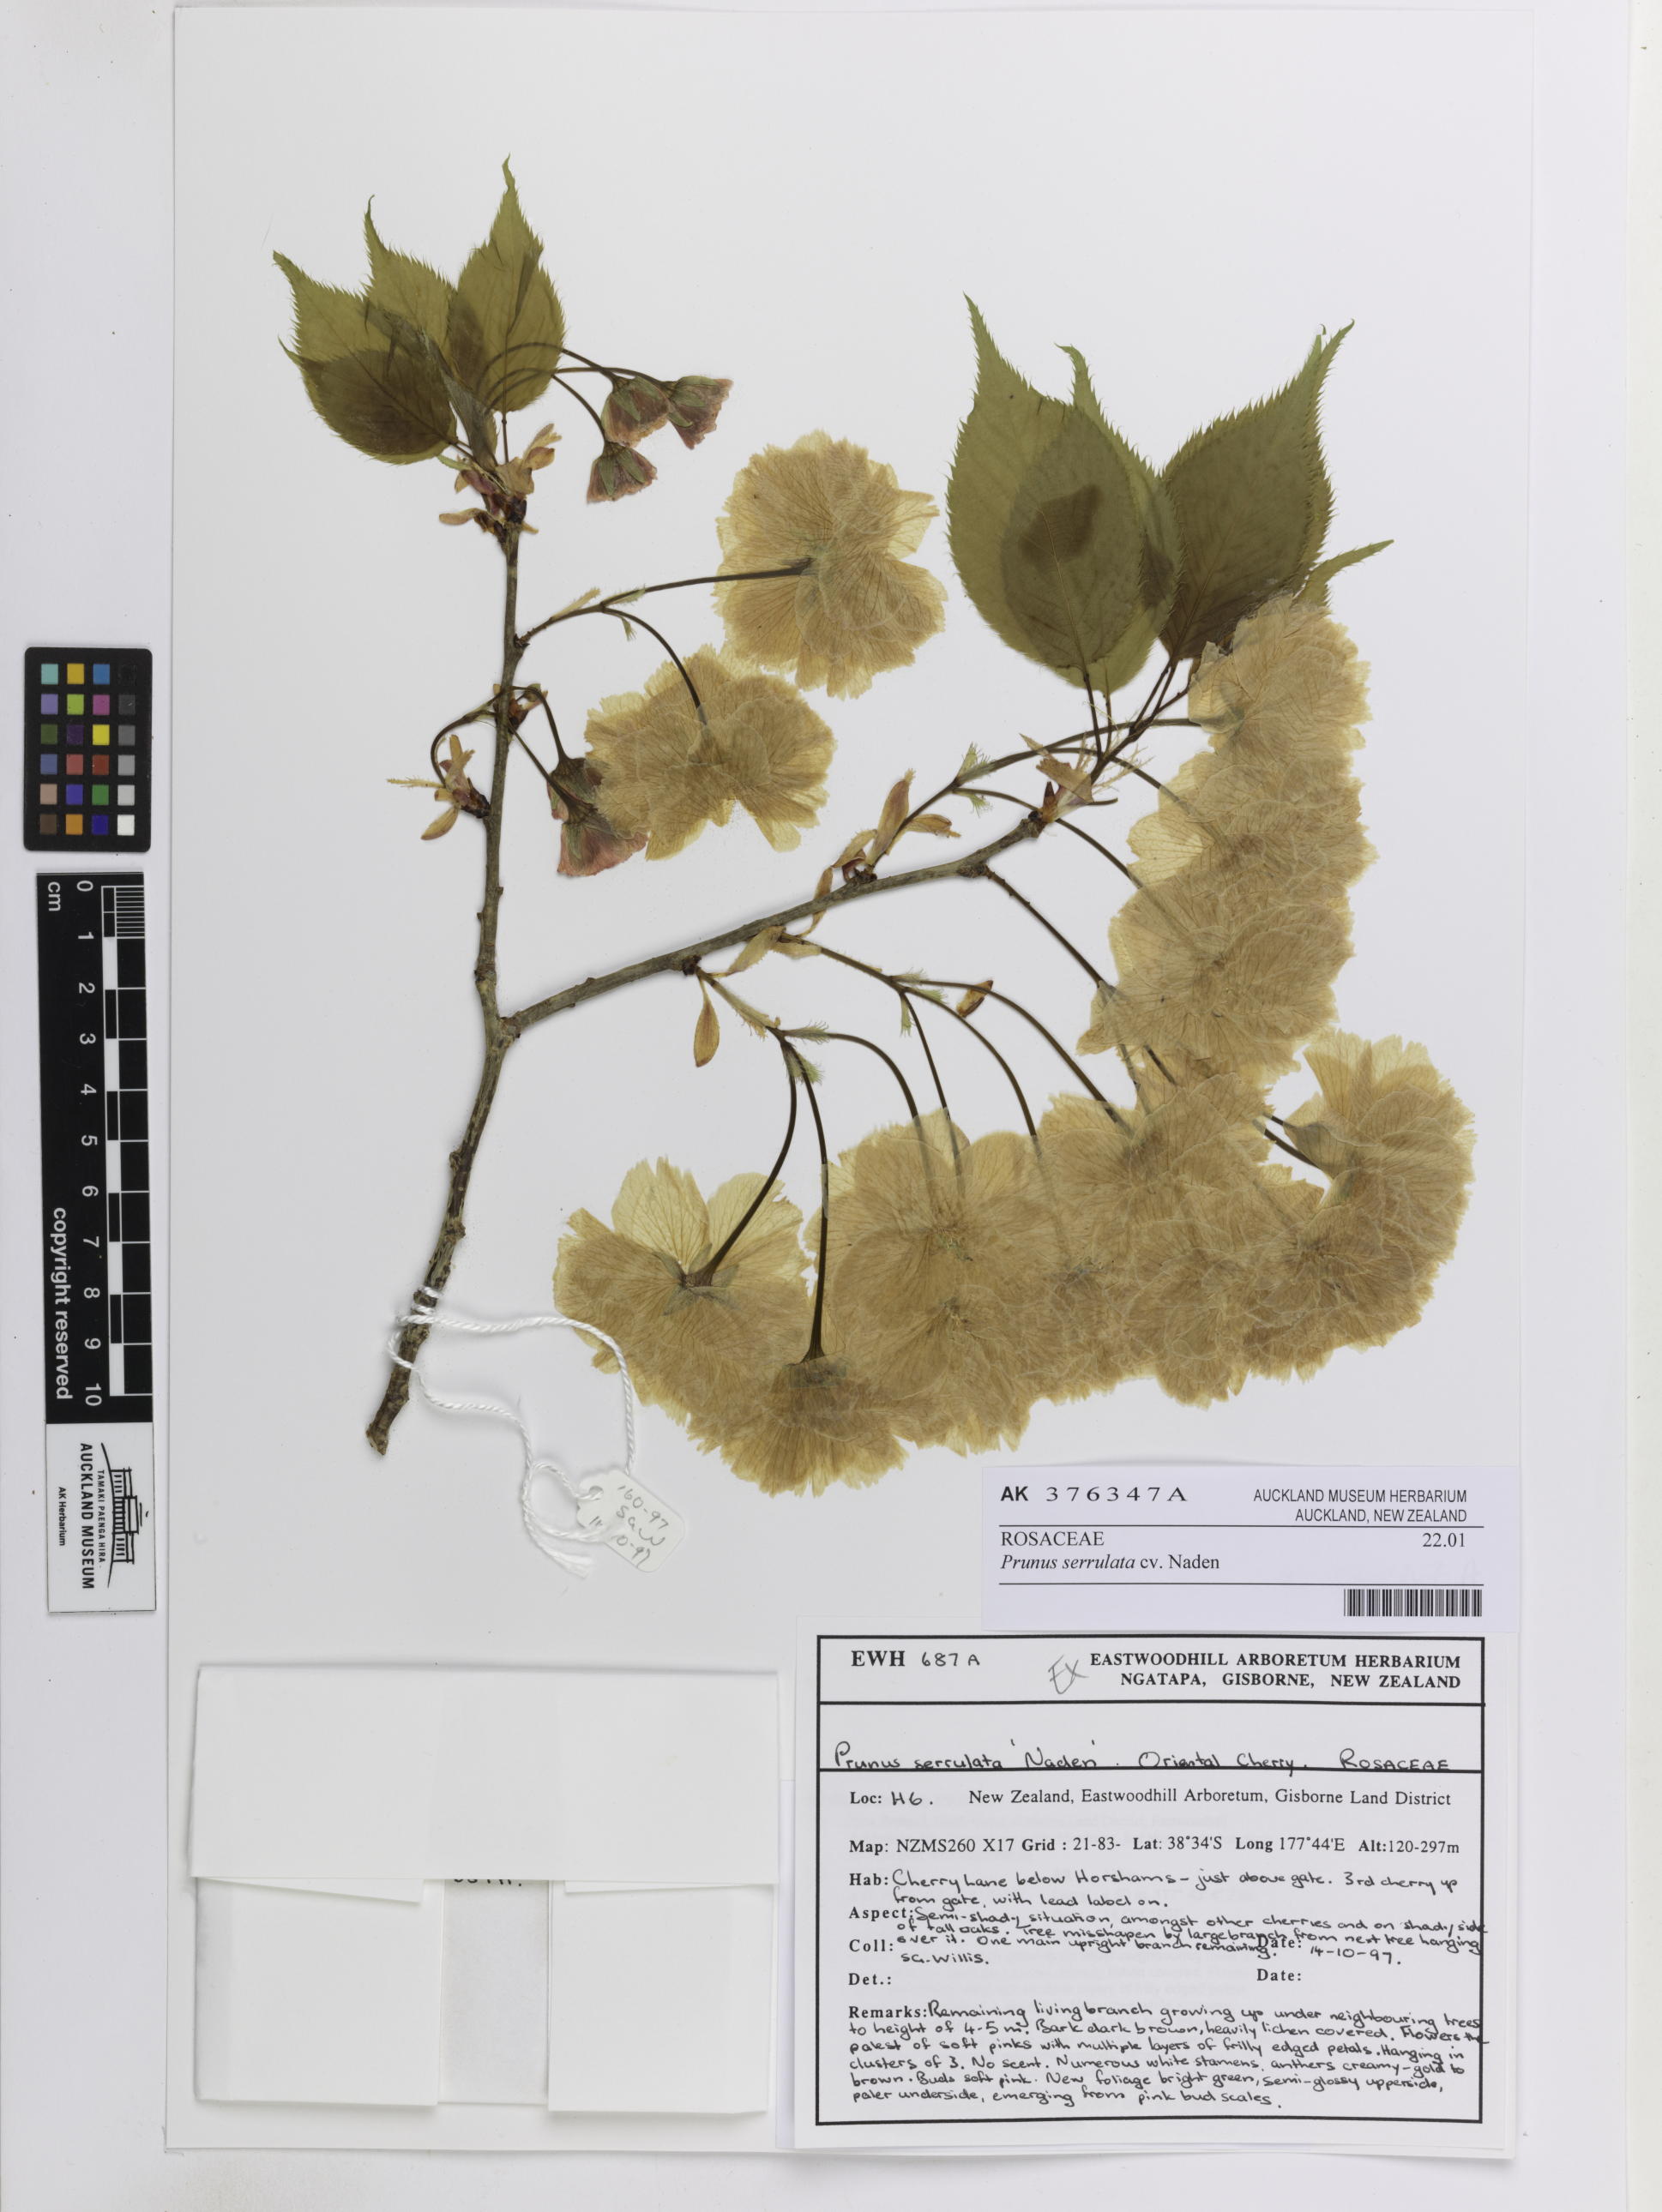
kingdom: Plantae
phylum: Tracheophyta
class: Magnoliopsida
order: Rosales
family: Rosaceae
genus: Prunus
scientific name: Prunus serrulata
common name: Japanese cherry
